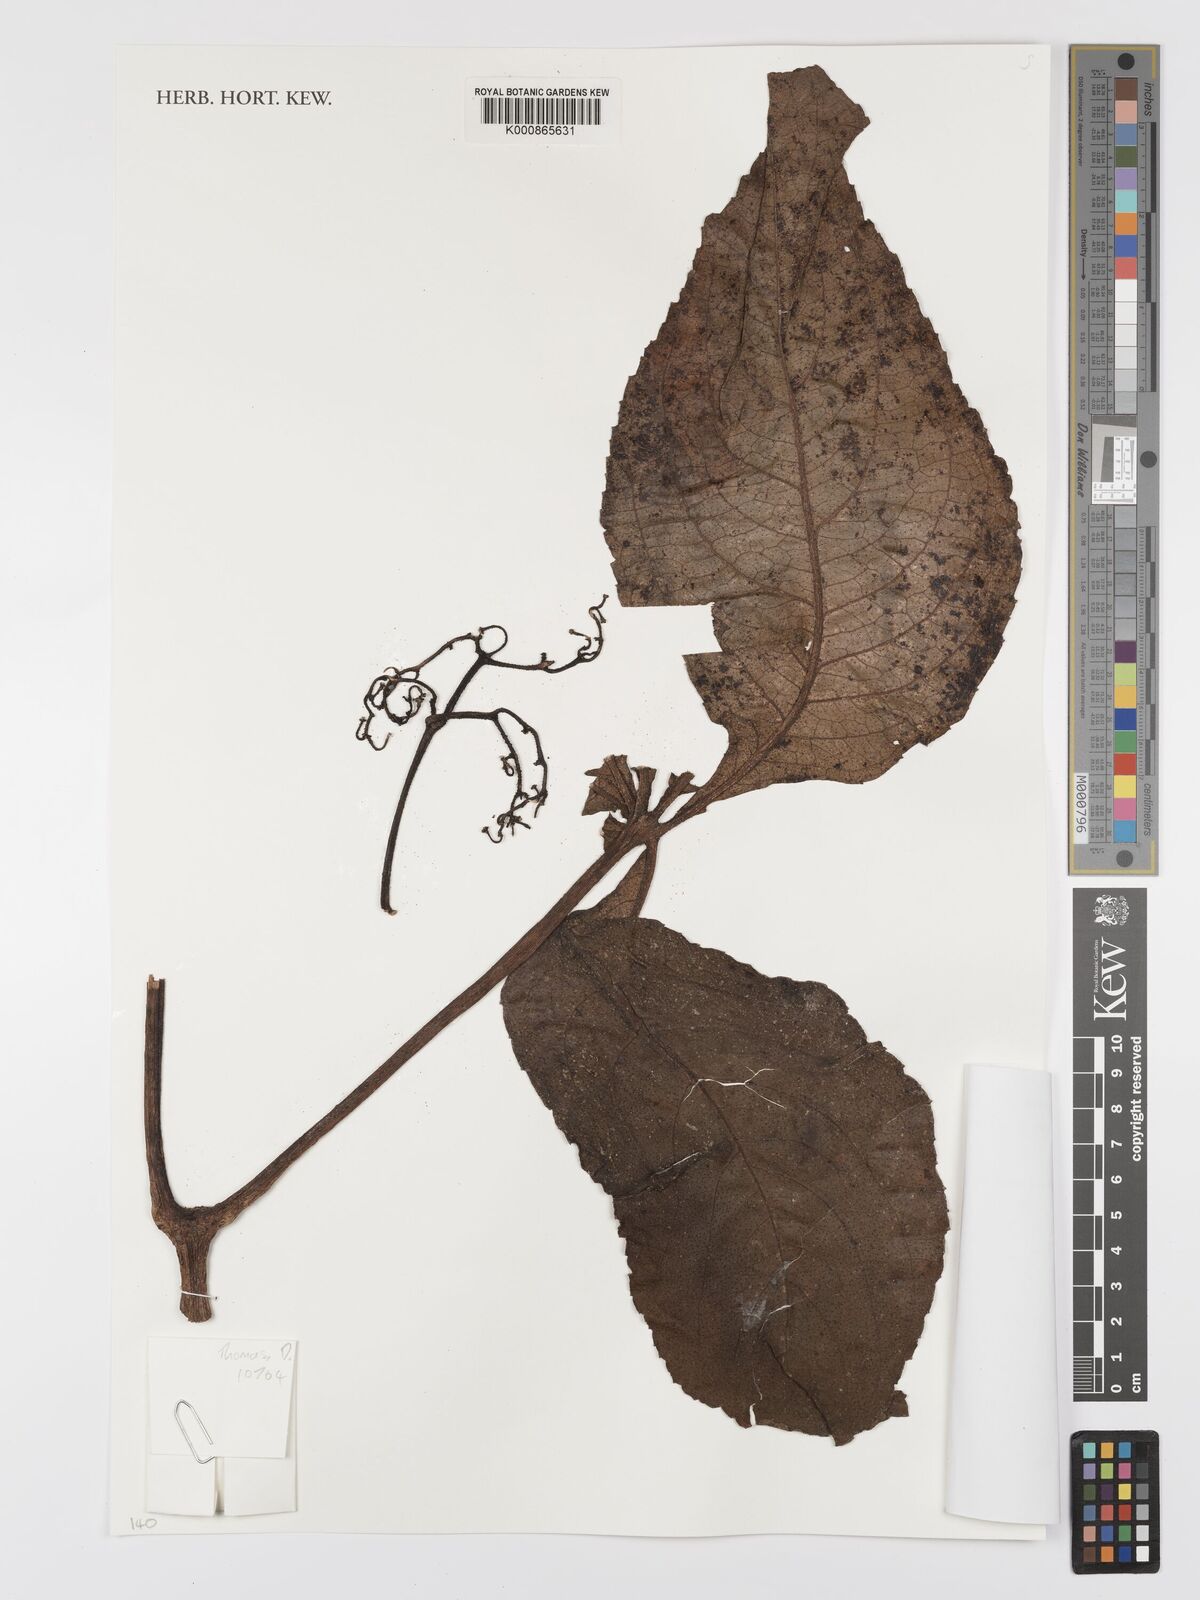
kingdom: Plantae
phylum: Tracheophyta
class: Magnoliopsida
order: Vitales
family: Vitaceae
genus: Cyphostemma
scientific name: Cyphostemma
